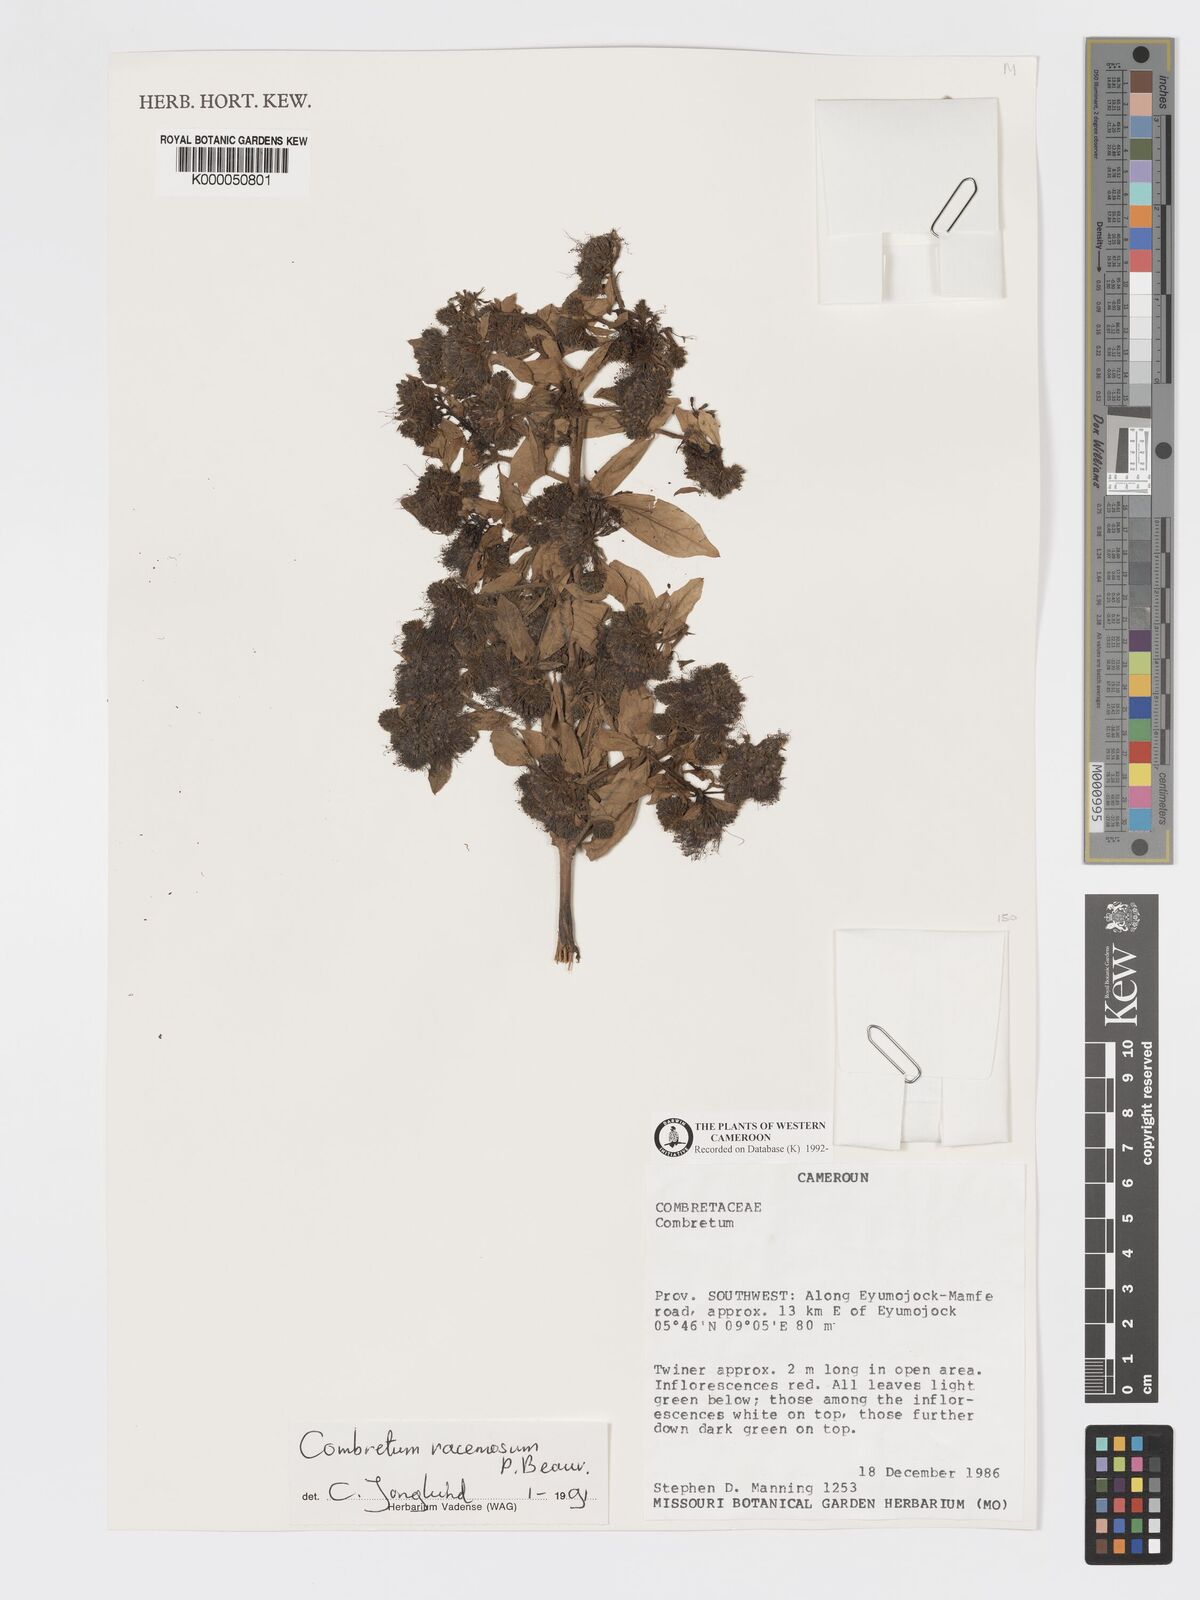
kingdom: Plantae
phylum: Tracheophyta
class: Magnoliopsida
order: Myrtales
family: Combretaceae
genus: Combretum
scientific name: Combretum racemosum
